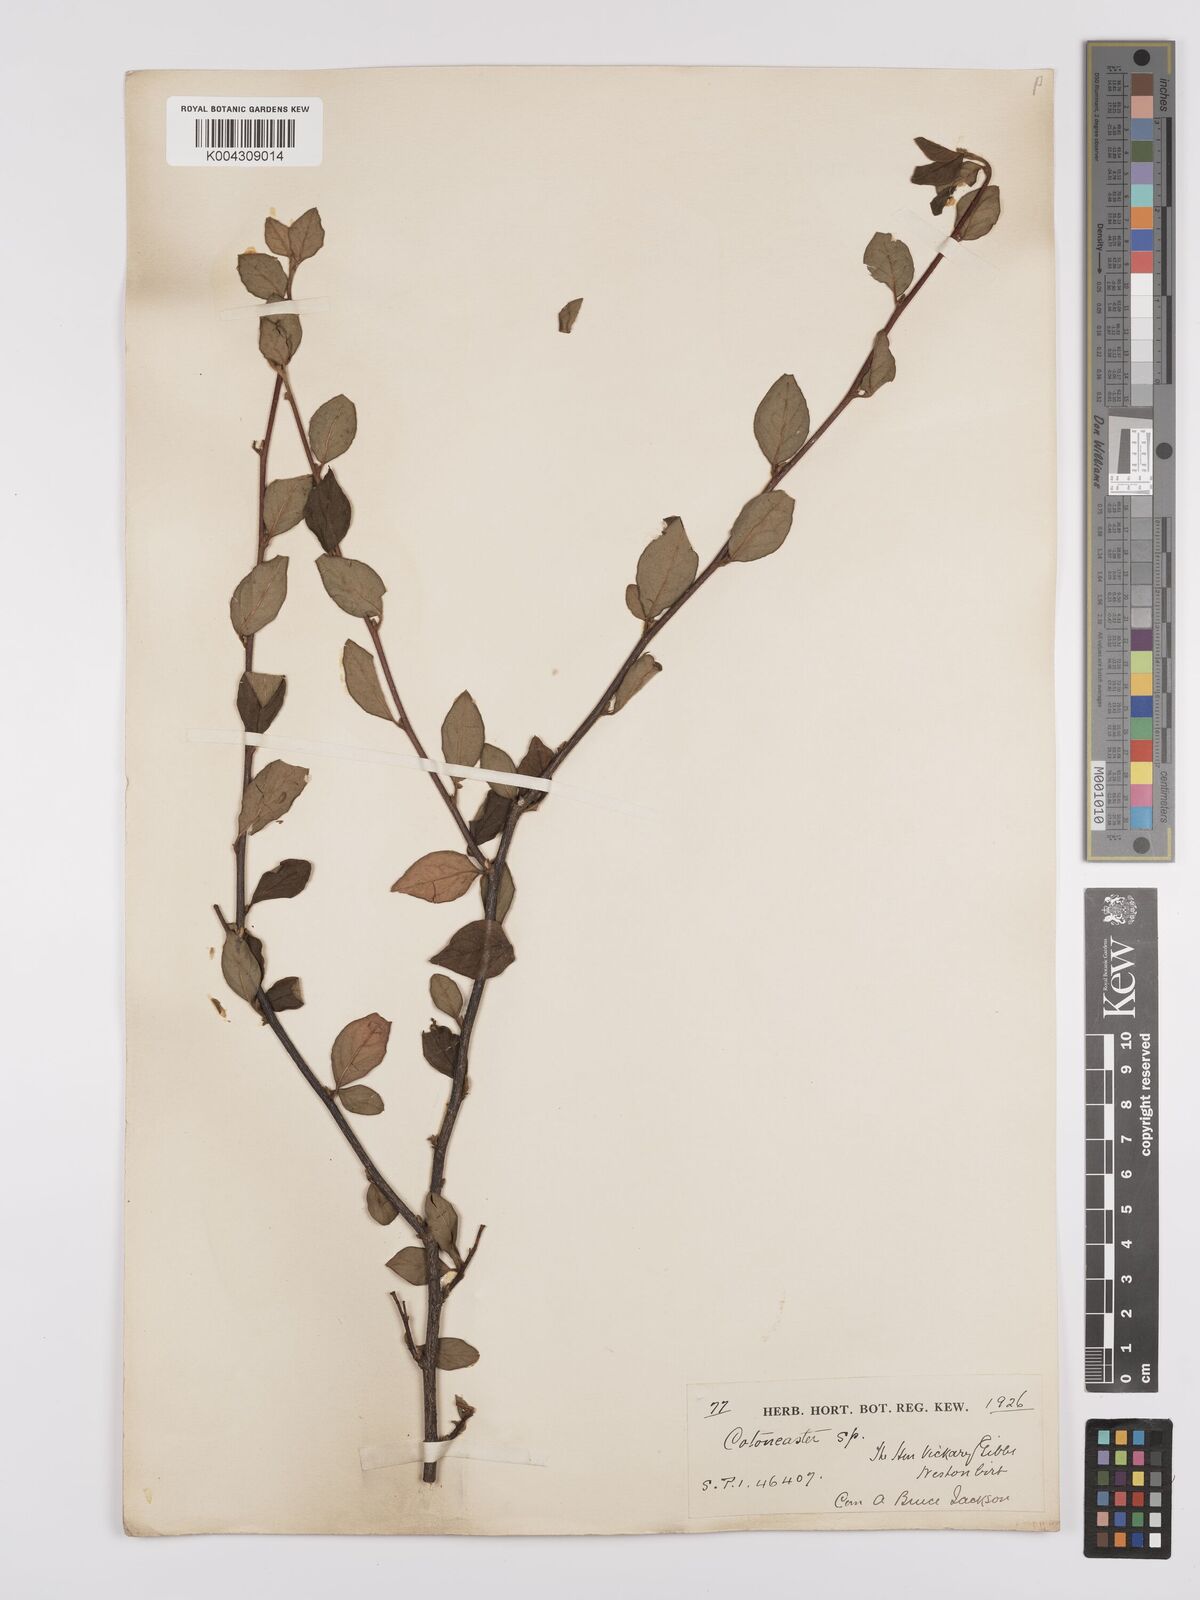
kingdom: Plantae
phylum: Tracheophyta
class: Magnoliopsida
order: Rosales
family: Rosaceae
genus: Cotoneaster
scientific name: Cotoneaster
